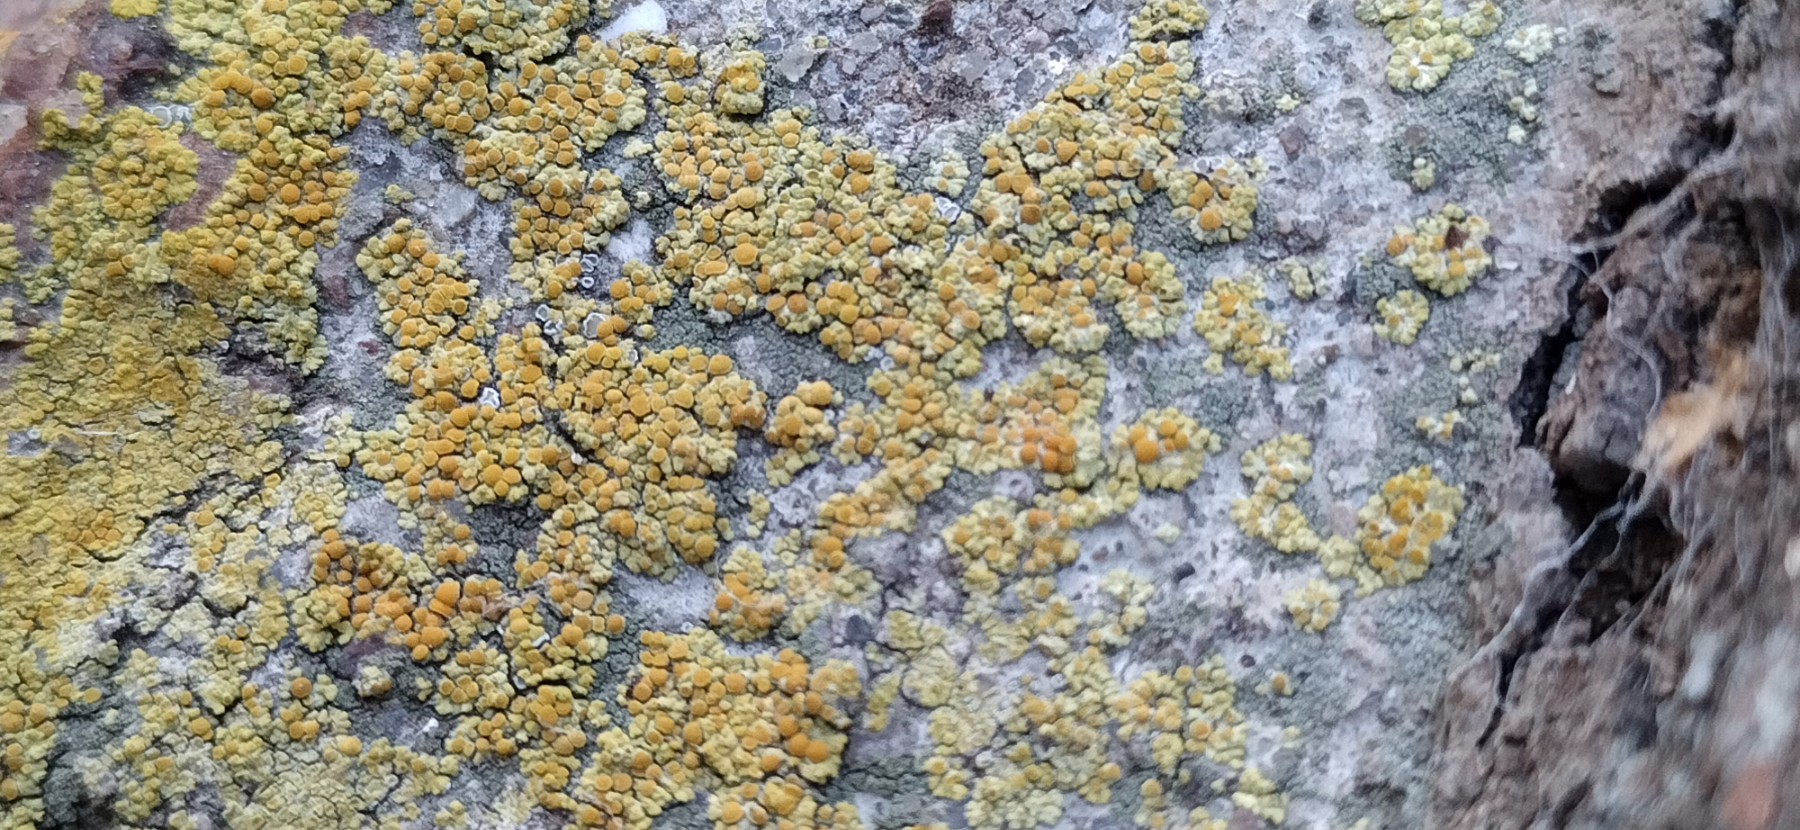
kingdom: Fungi
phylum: Ascomycota
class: Lecanoromycetes
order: Teloschistales
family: Teloschistaceae
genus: Calogaya
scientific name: Calogaya arnoldii
